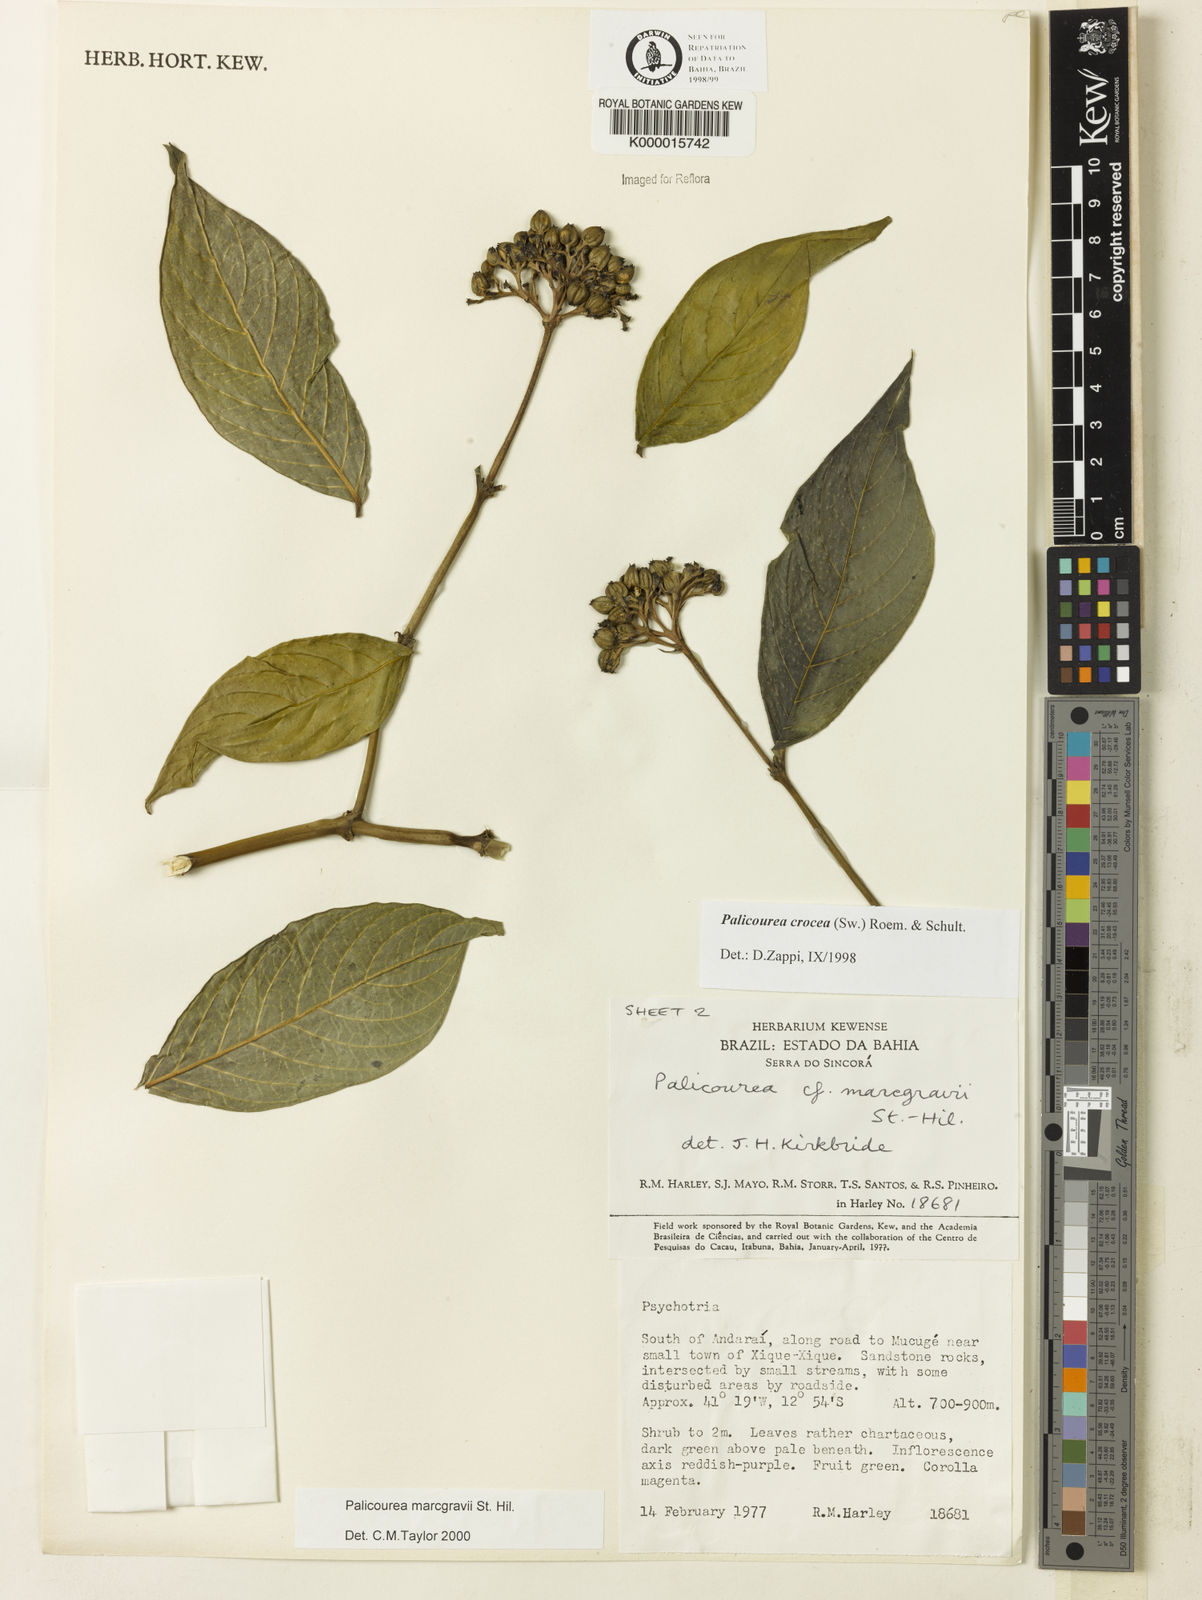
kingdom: Plantae
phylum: Tracheophyta
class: Magnoliopsida
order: Gentianales
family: Rubiaceae
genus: Palicourea
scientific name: Palicourea marcgravii
